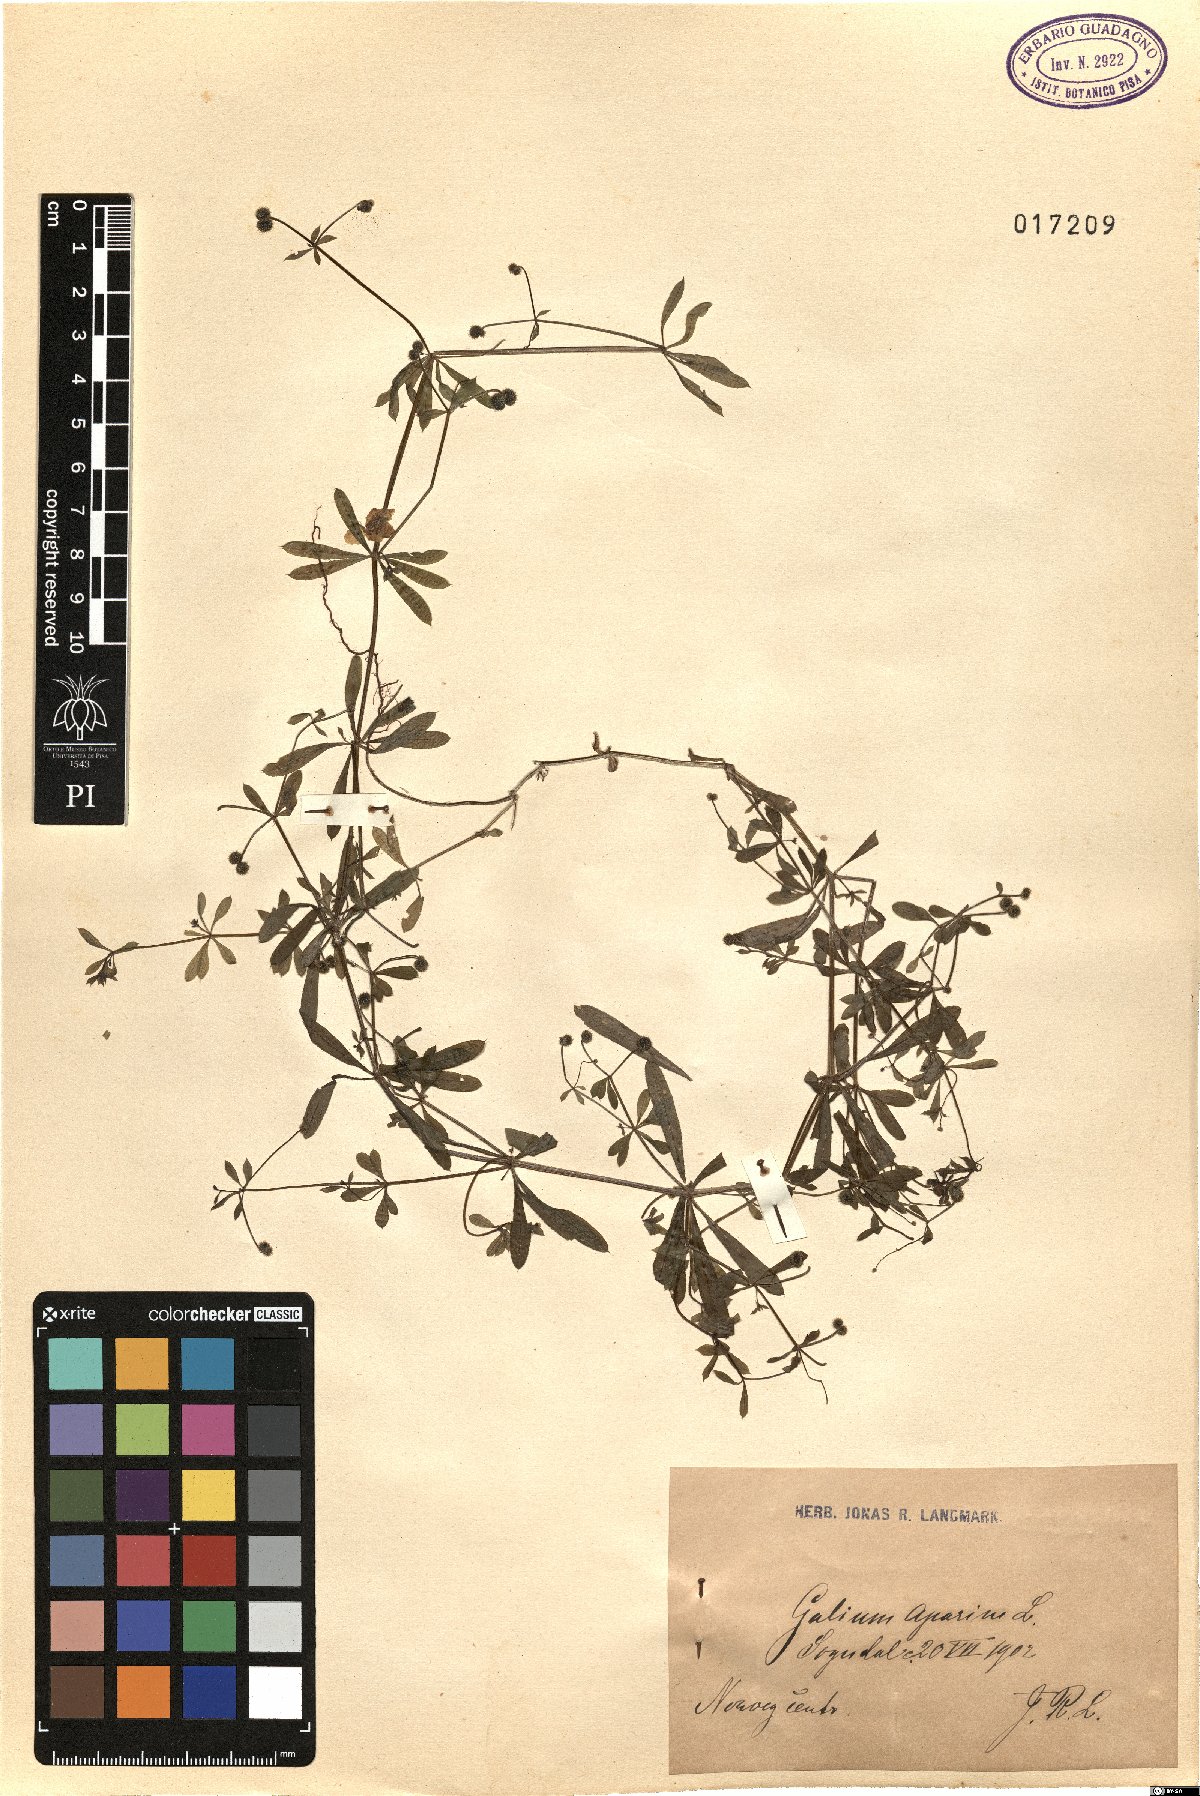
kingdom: Plantae
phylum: Tracheophyta
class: Magnoliopsida
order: Gentianales
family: Rubiaceae
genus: Galium
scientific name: Galium aparine
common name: Cleavers
